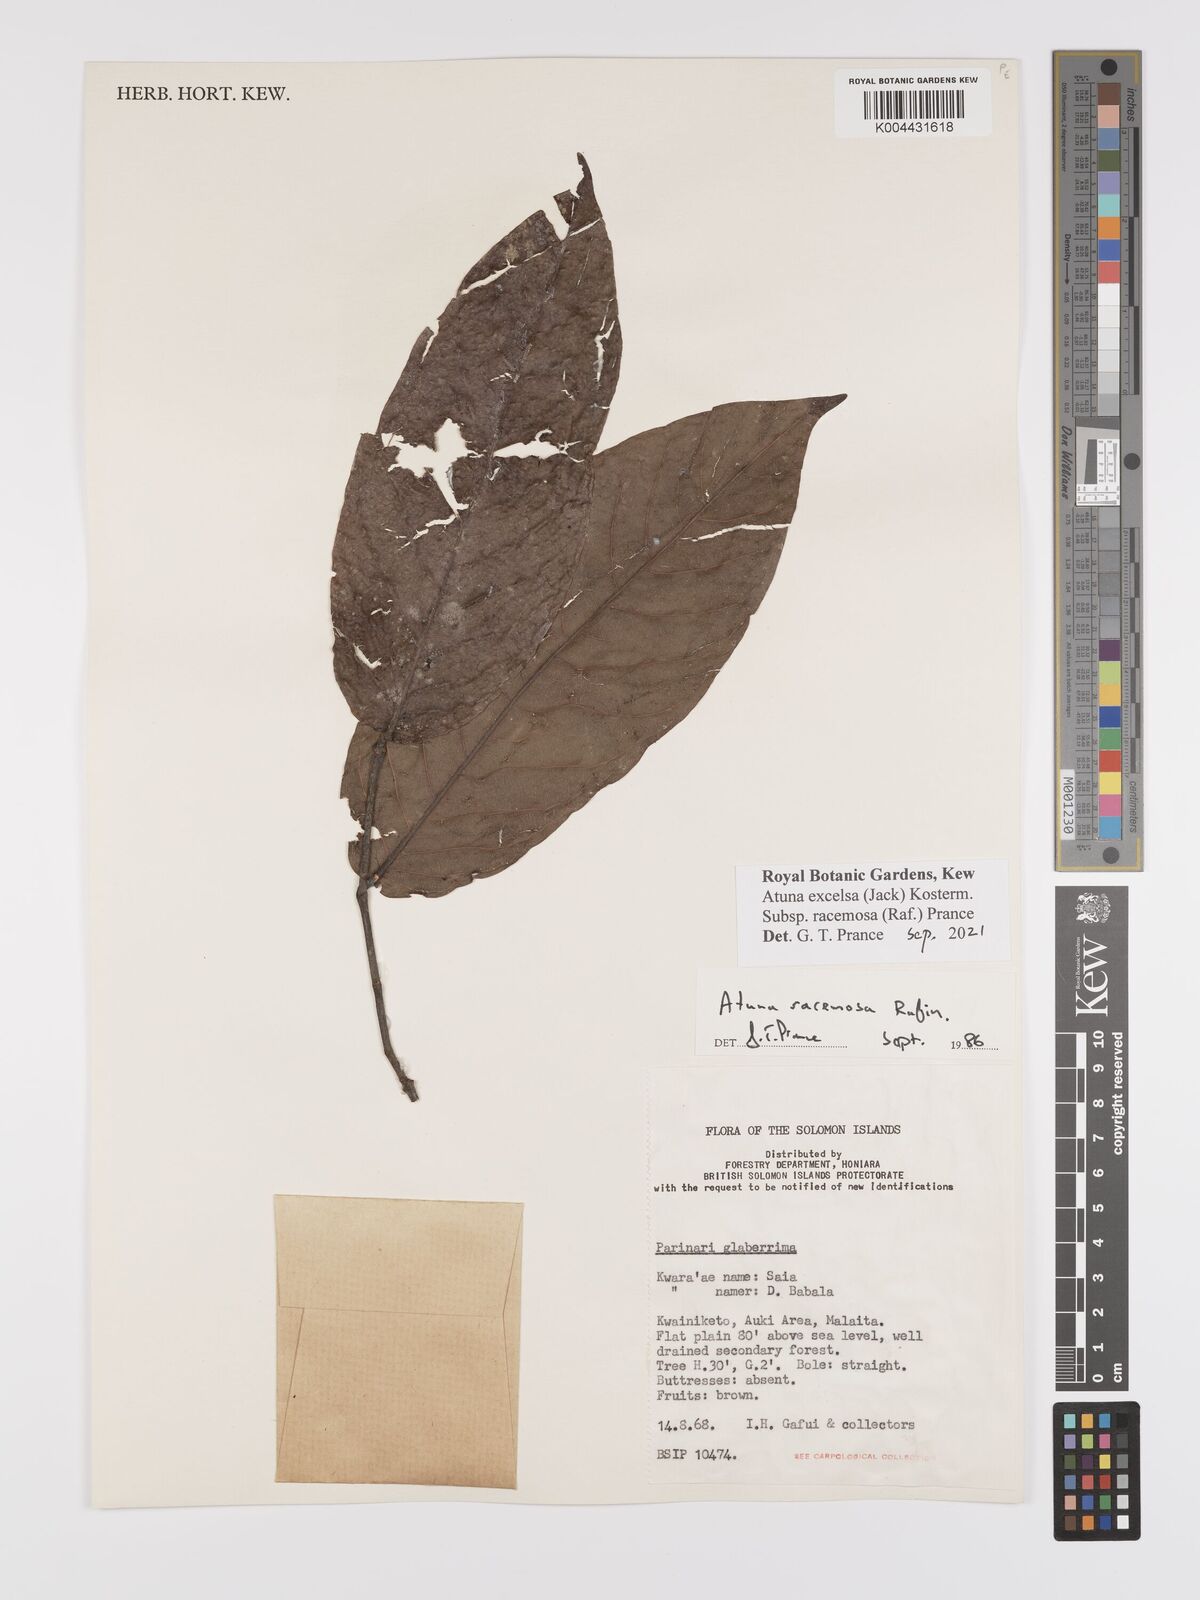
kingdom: Plantae
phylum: Tracheophyta
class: Magnoliopsida
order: Malpighiales
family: Chrysobalanaceae
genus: Atuna
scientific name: Atuna
